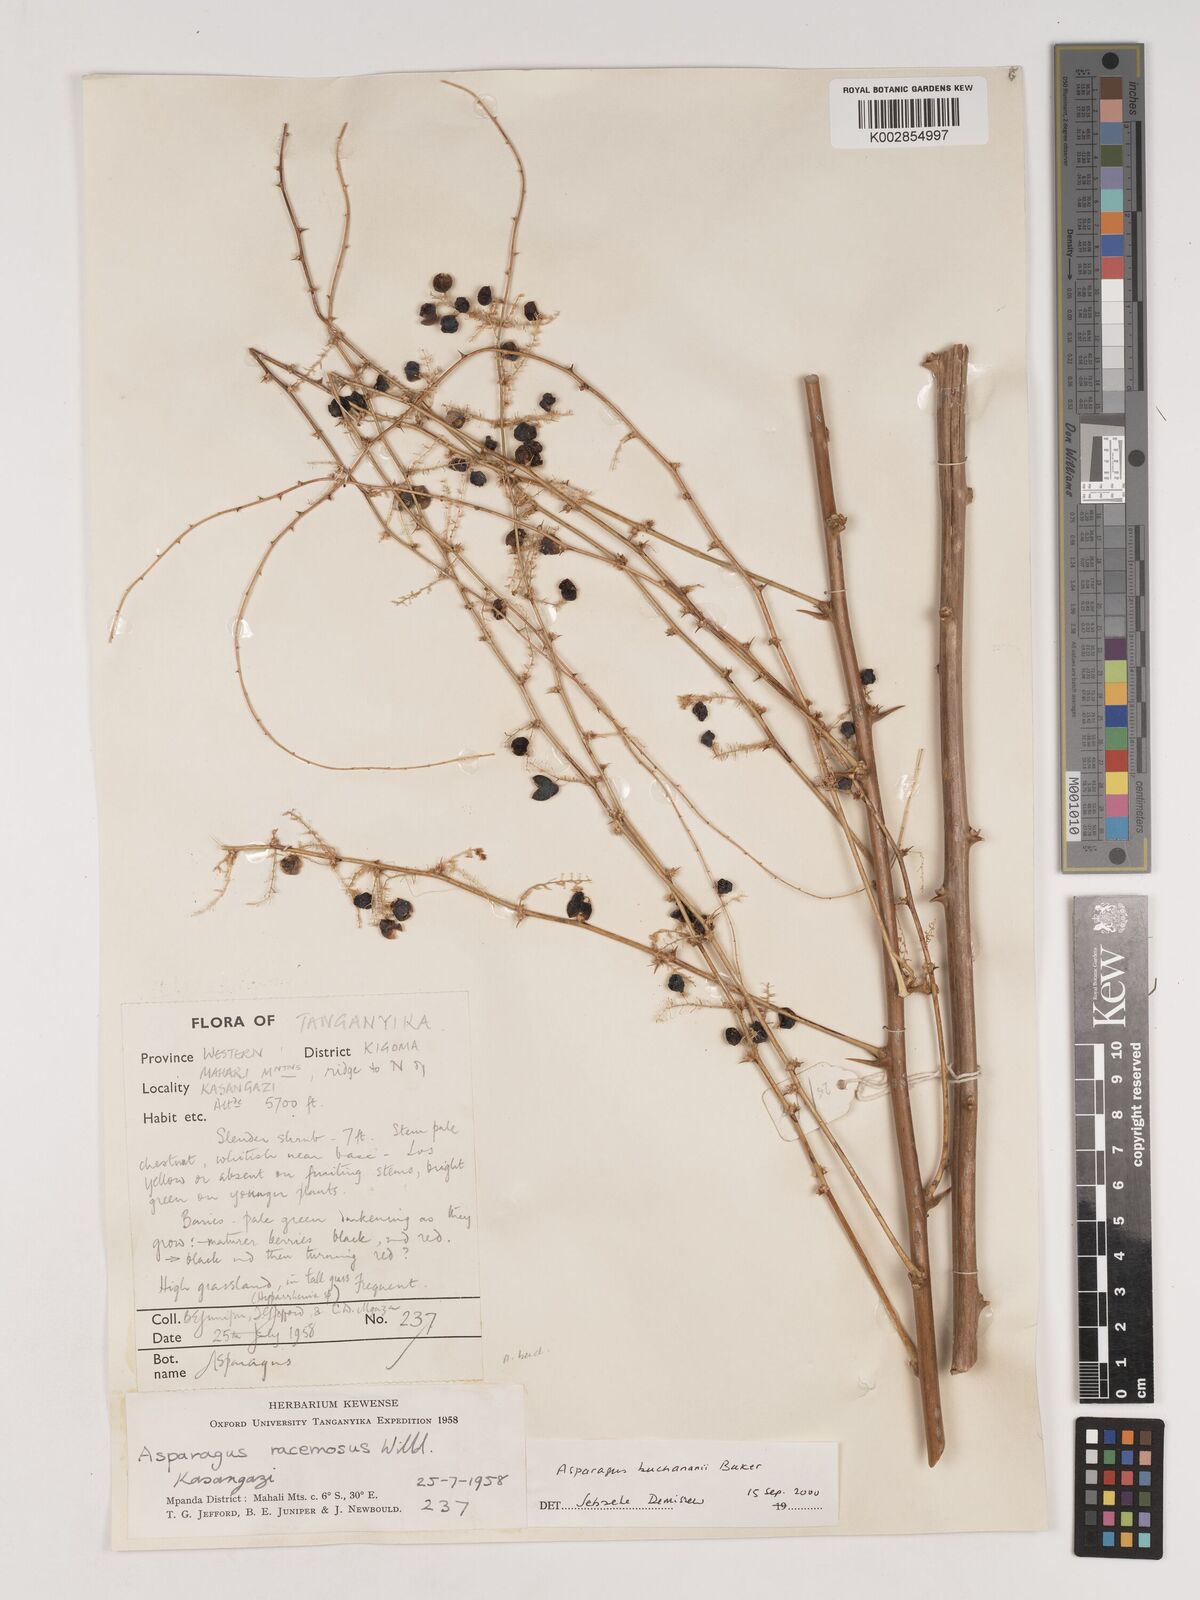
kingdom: Plantae
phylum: Tracheophyta
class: Liliopsida
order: Asparagales
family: Asparagaceae
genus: Asparagus
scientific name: Asparagus buchananii
